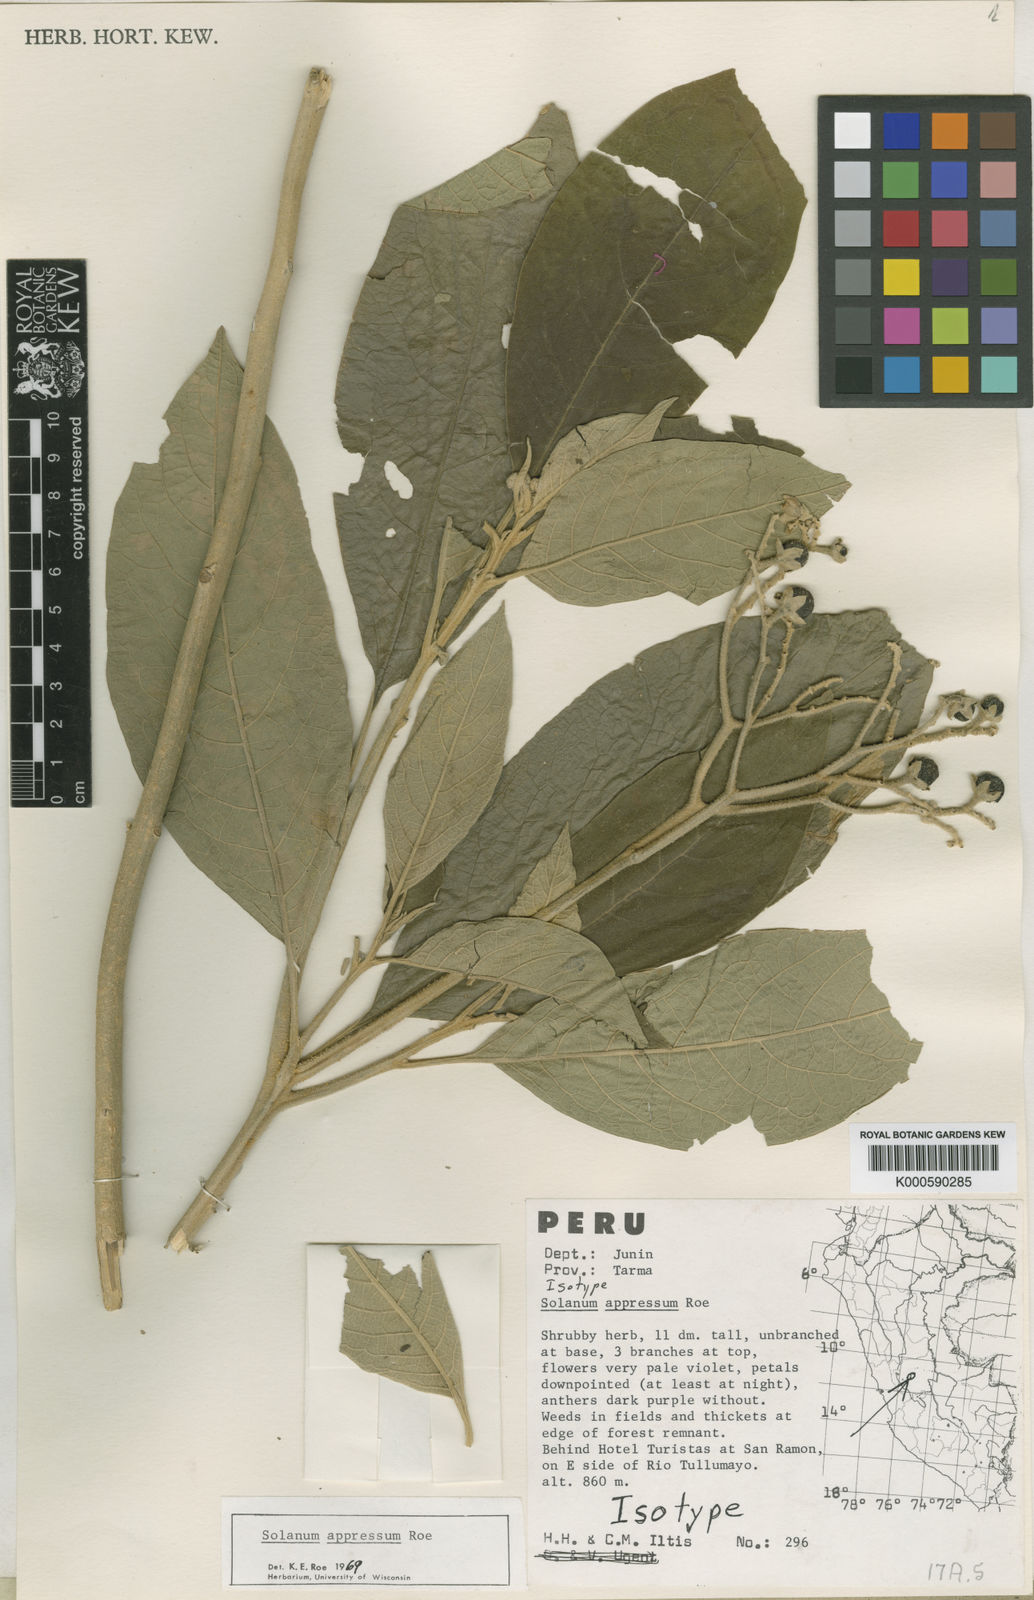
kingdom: Plantae
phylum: Tracheophyta
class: Magnoliopsida
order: Solanales
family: Solanaceae
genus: Solanum
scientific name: Solanum appressum
